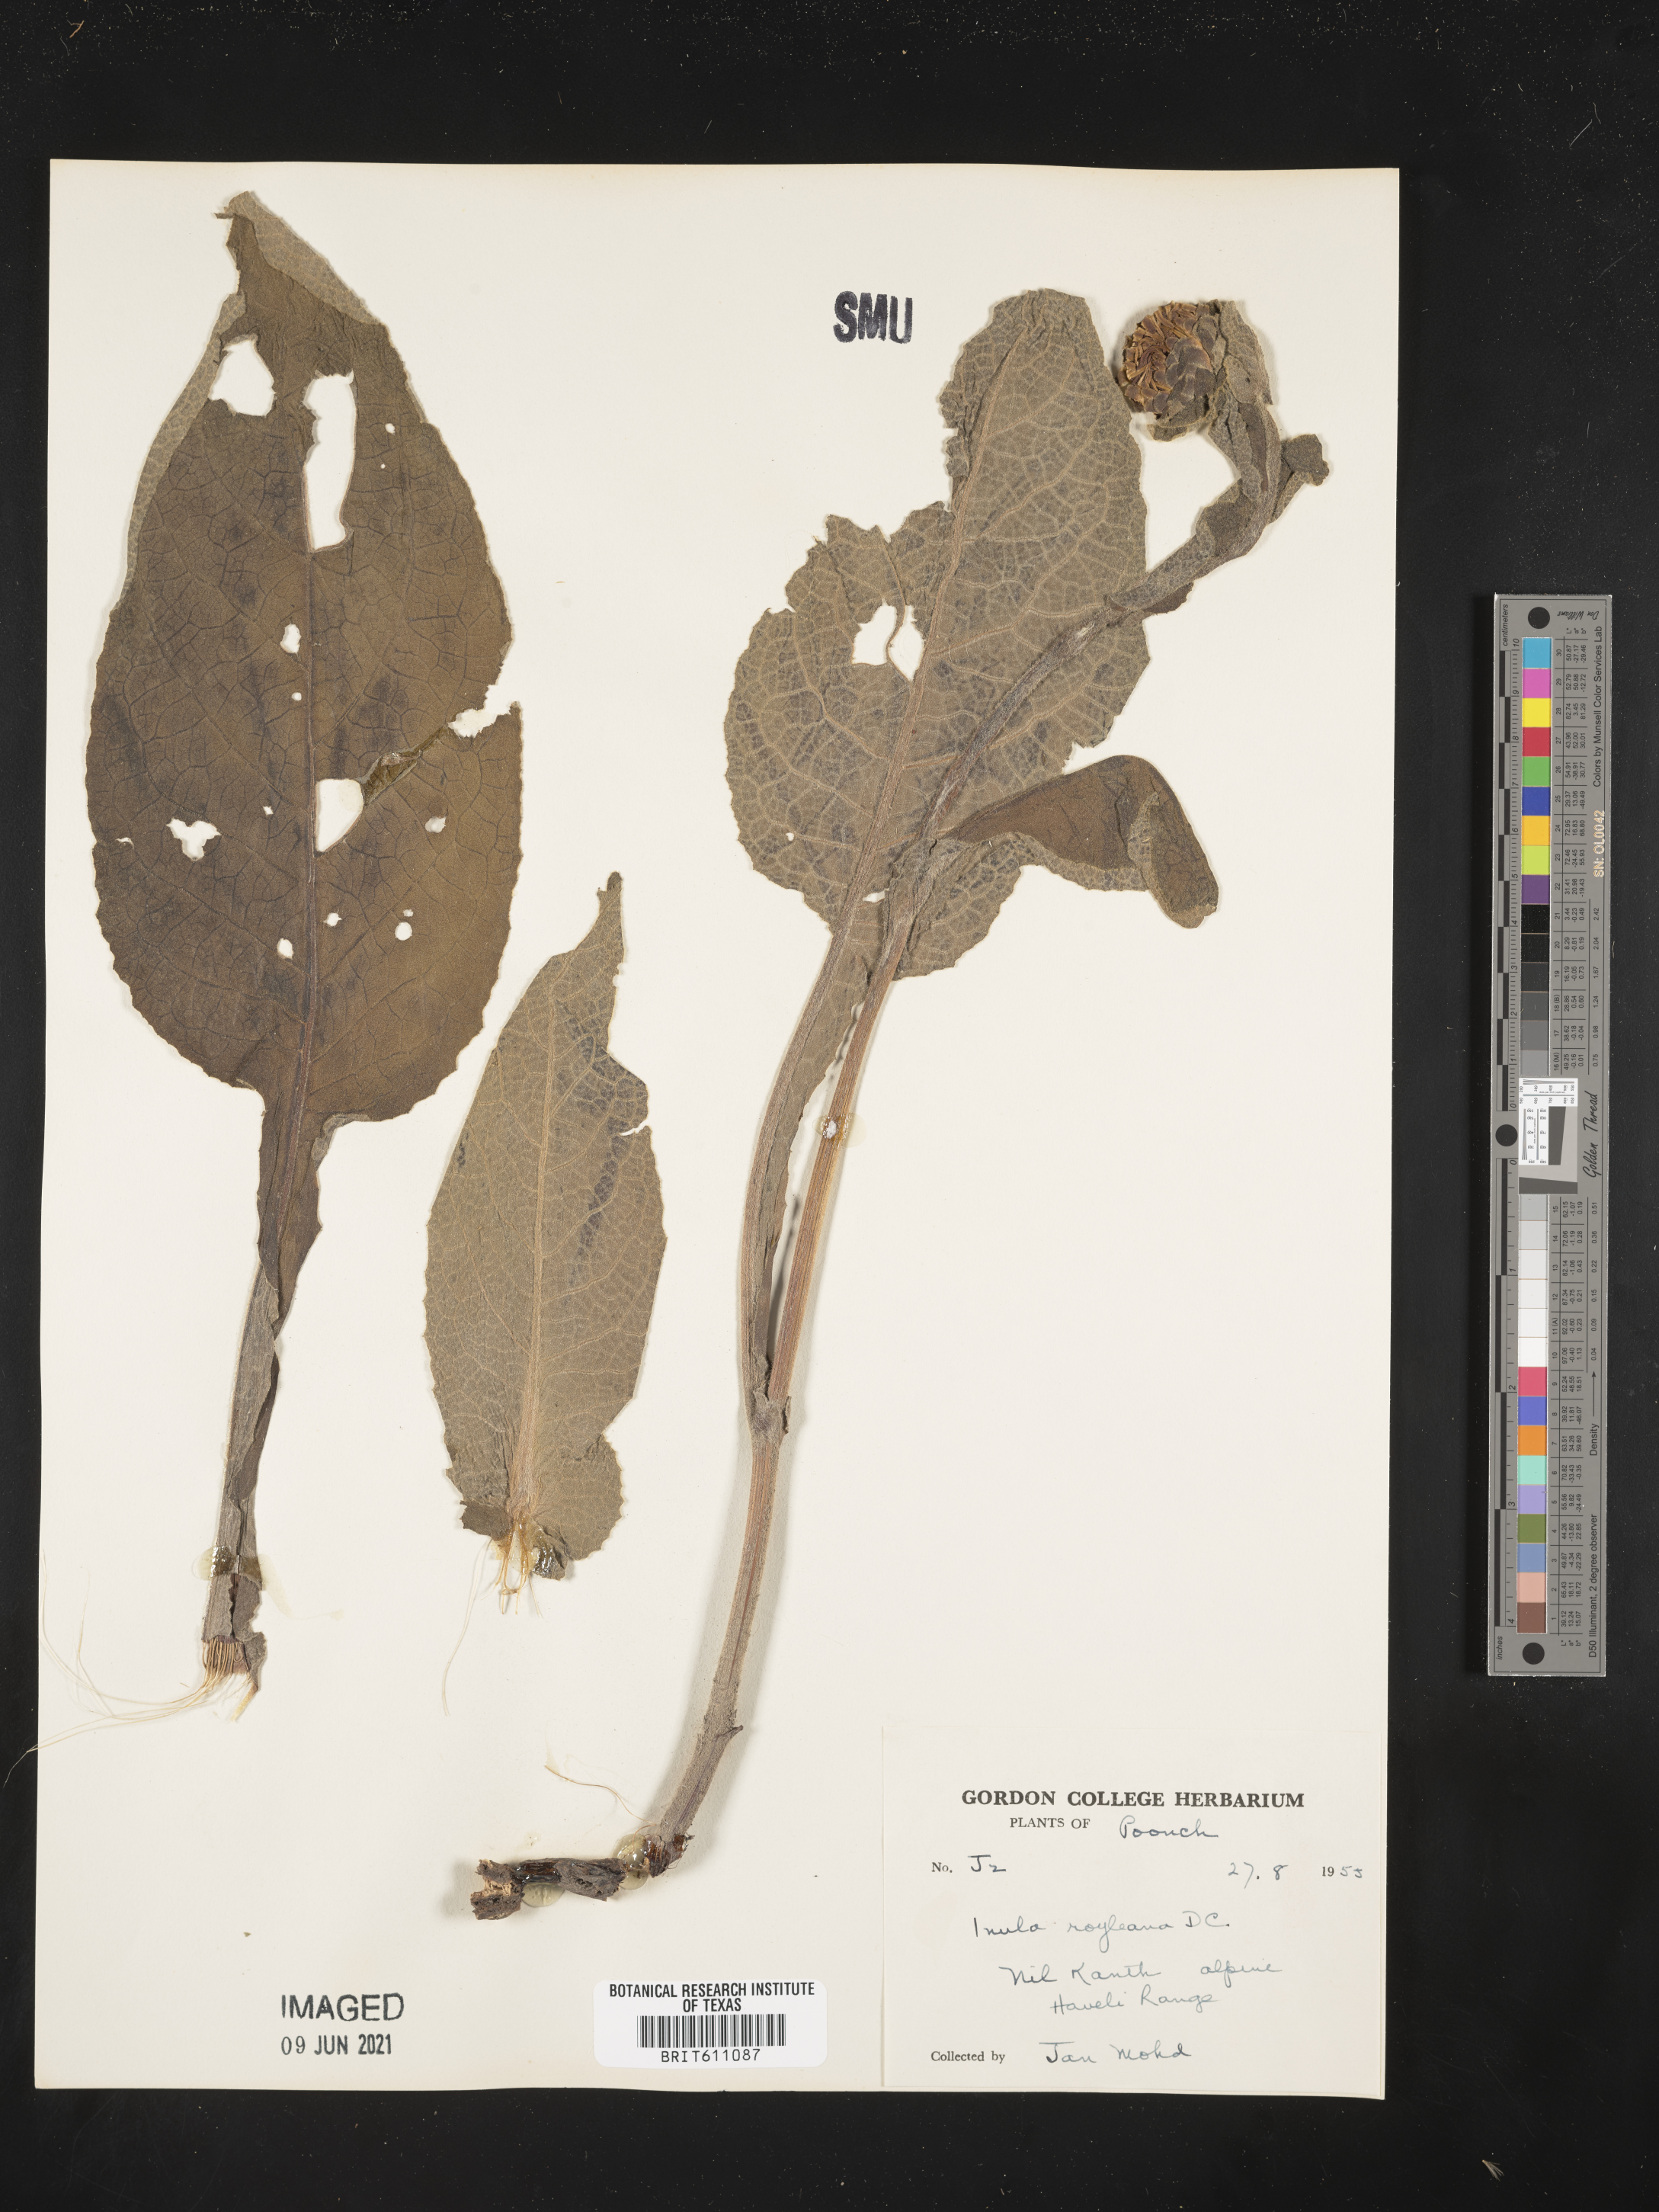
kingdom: Plantae
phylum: Tracheophyta
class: Magnoliopsida
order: Asterales
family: Asteraceae
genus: Inula
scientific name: Inula royleana
